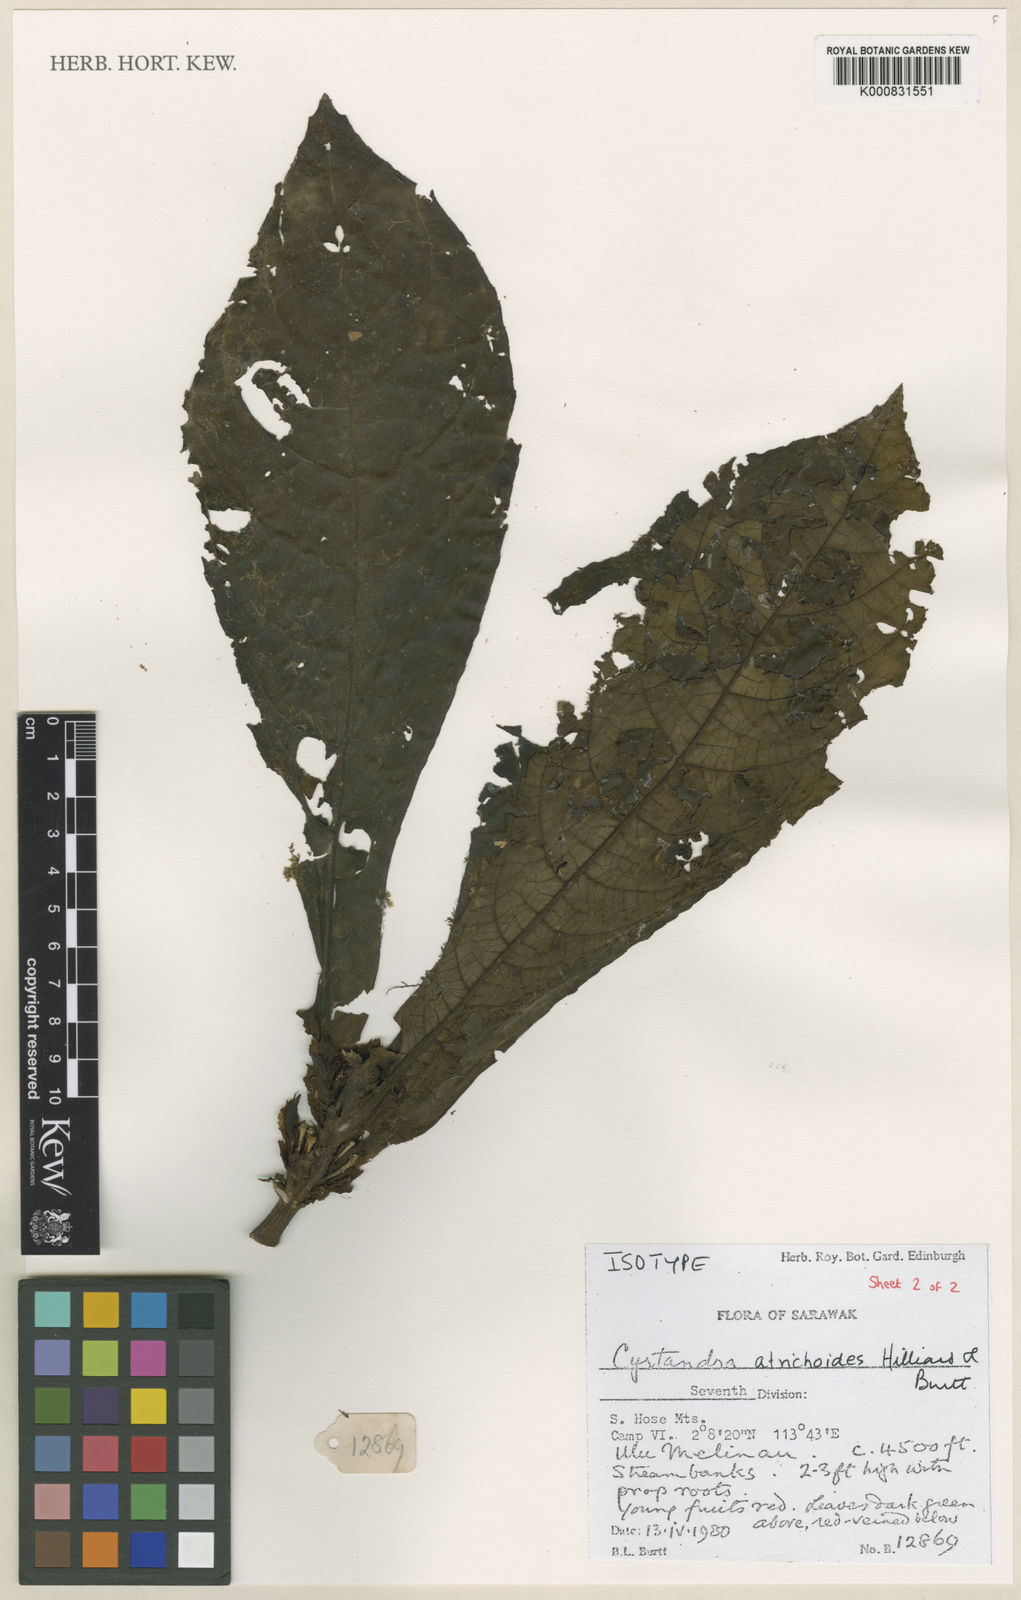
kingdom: Plantae
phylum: Tracheophyta
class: Magnoliopsida
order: Lamiales
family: Gesneriaceae
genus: Cyrtandra
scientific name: Cyrtandra atrichoides
